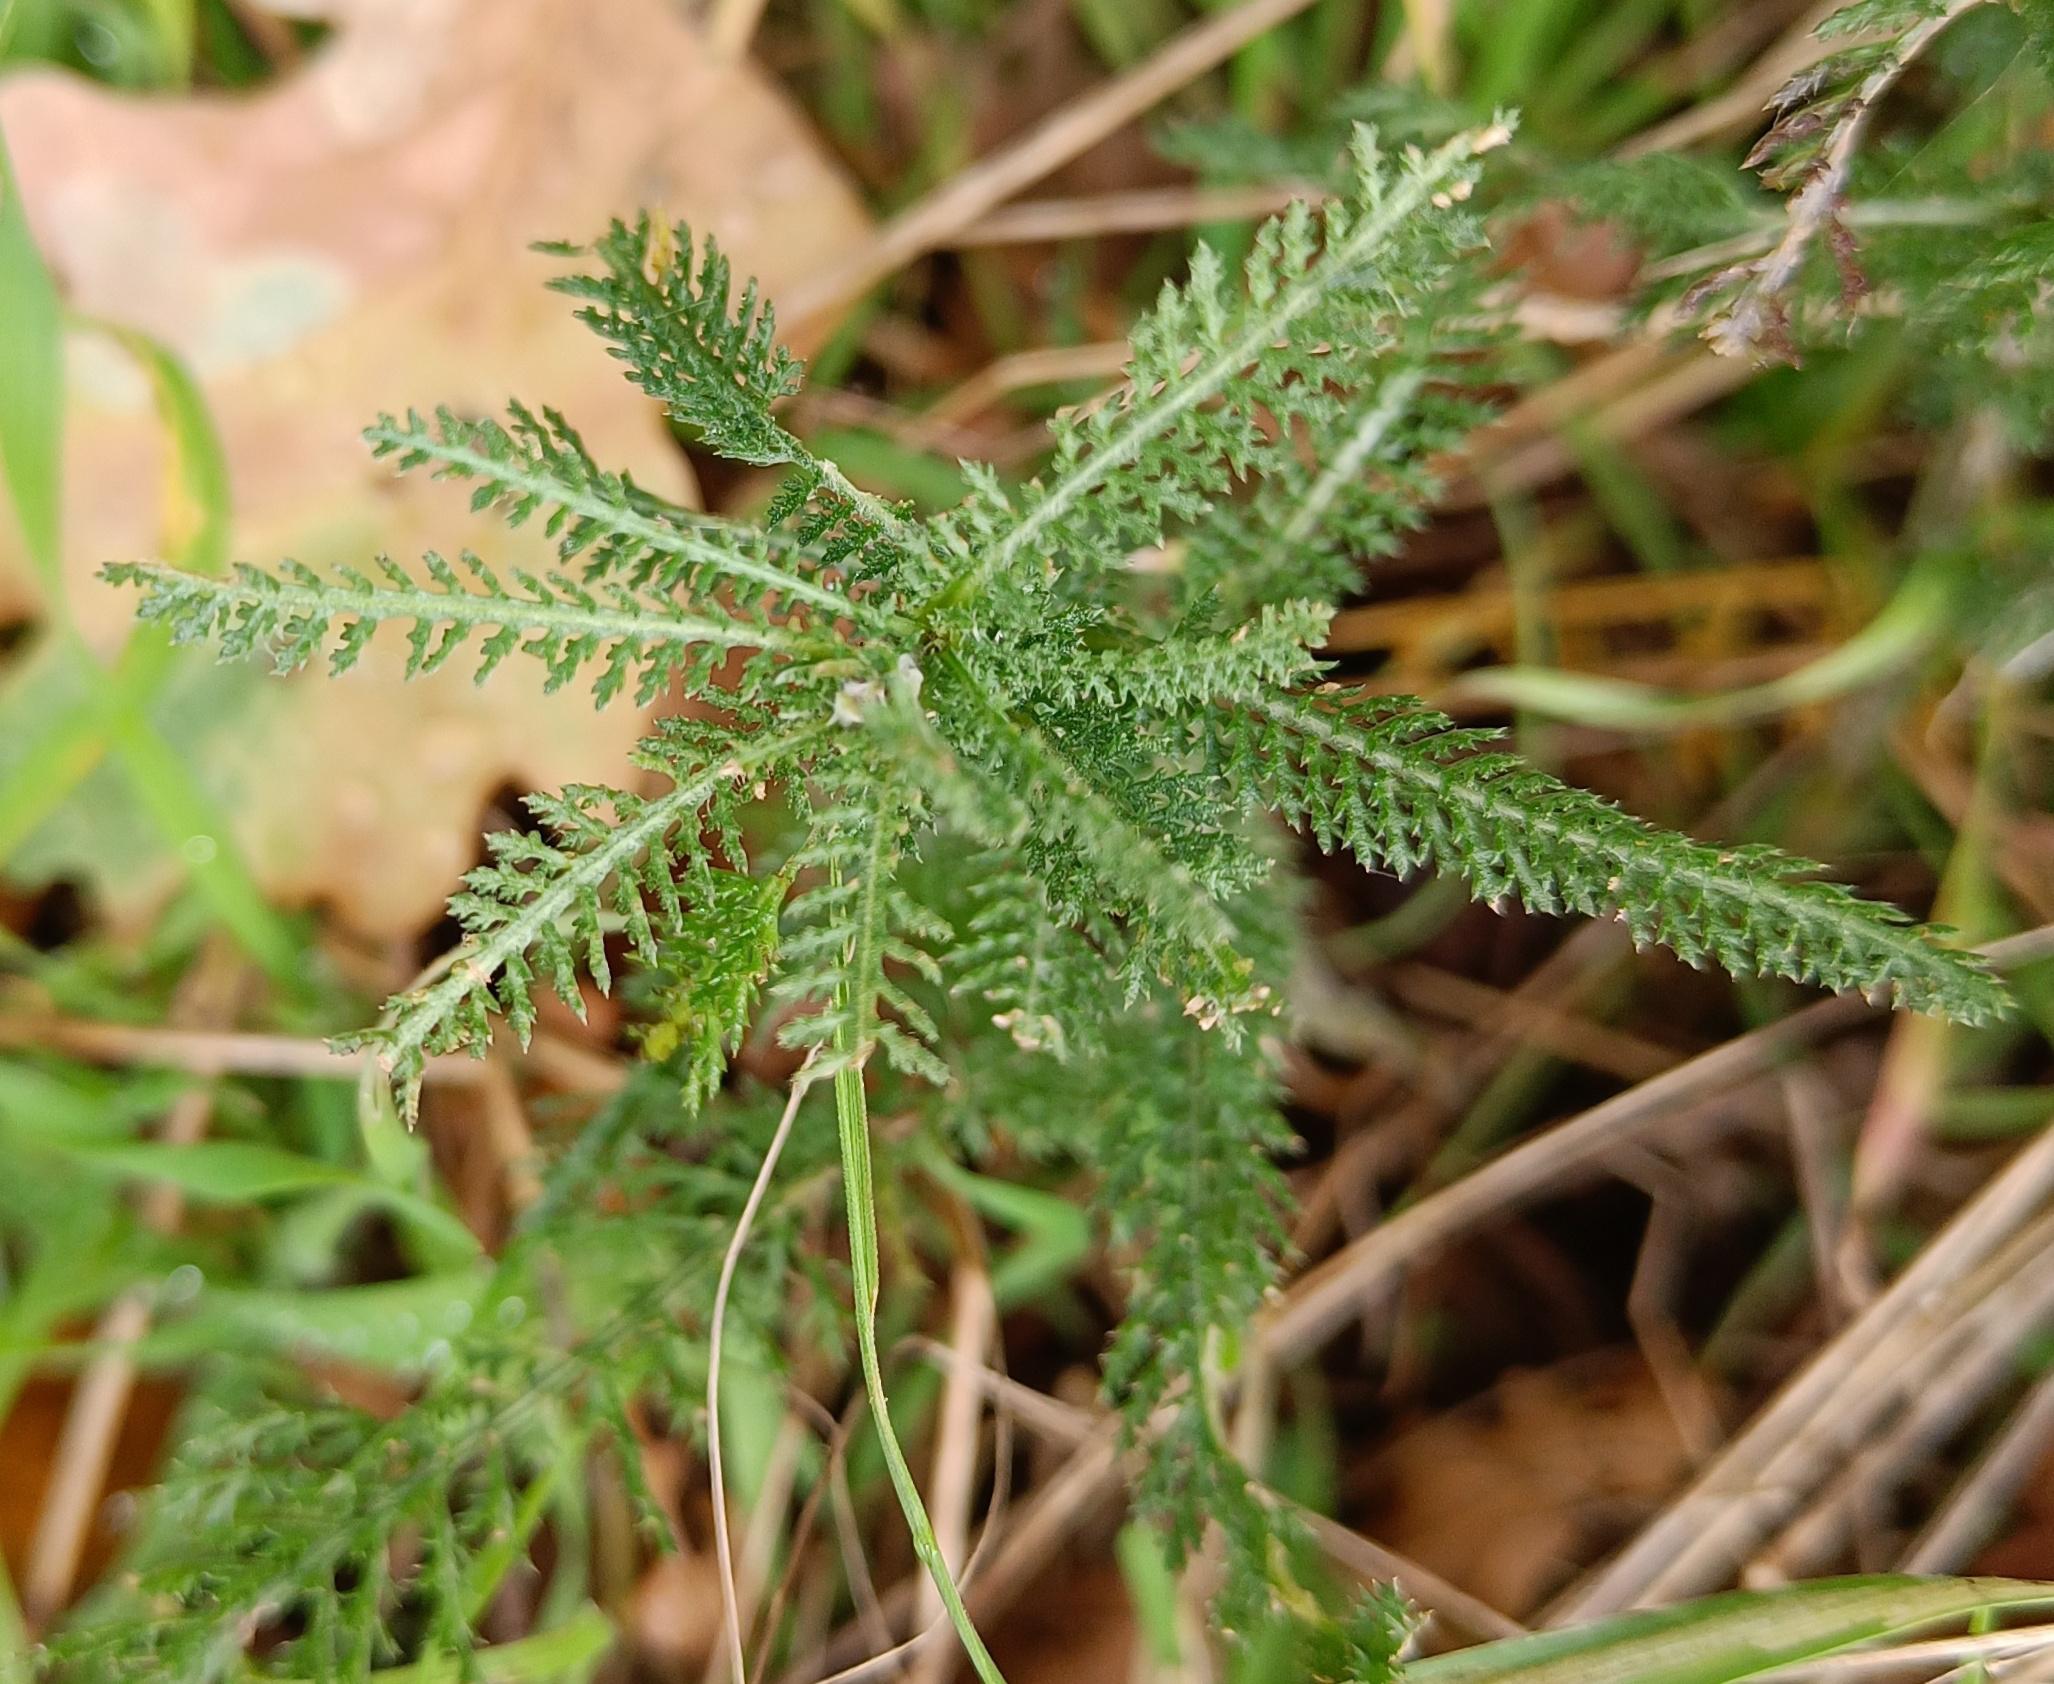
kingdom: Plantae
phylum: Tracheophyta
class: Magnoliopsida
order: Asterales
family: Asteraceae
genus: Achillea
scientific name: Achillea millefolium
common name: Almindelig røllike
